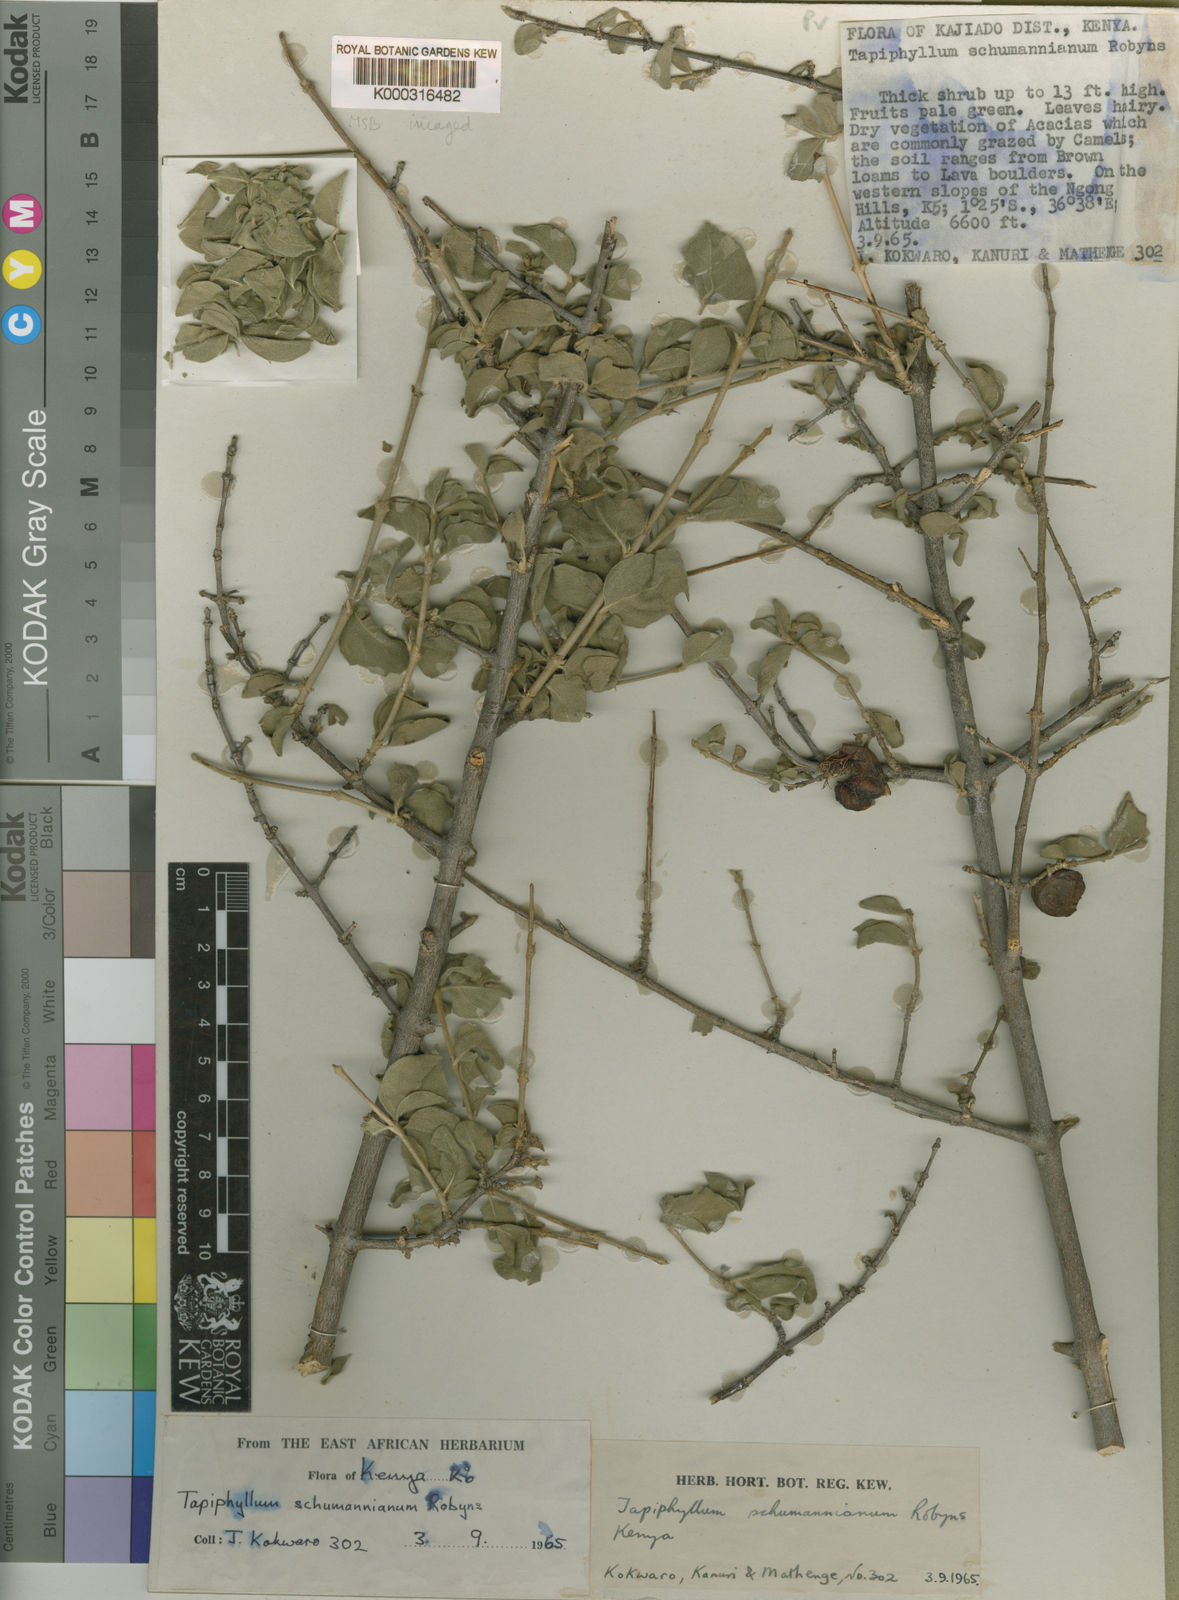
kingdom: Plantae
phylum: Tracheophyta
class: Magnoliopsida
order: Gentianales
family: Rubiaceae
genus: Vangueria
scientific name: Vangueria schumanniana
